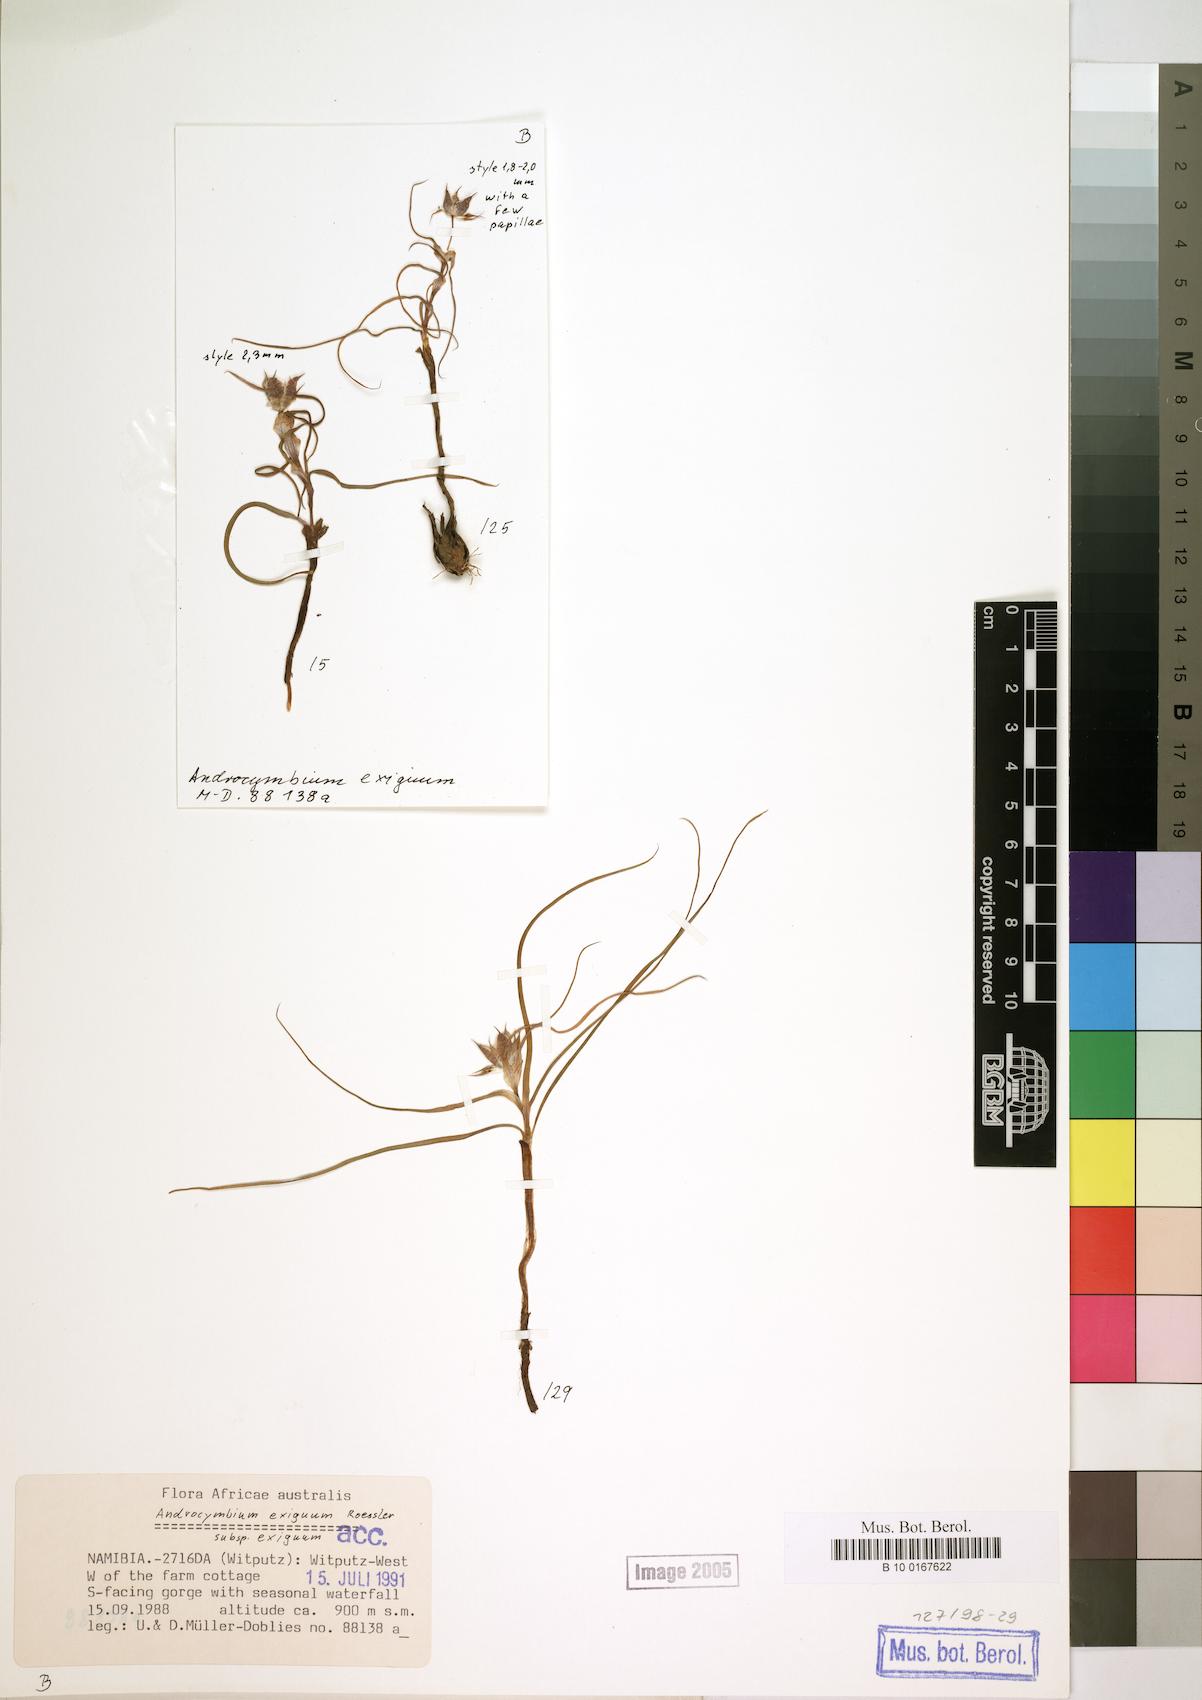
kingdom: Plantae
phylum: Tracheophyta
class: Liliopsida
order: Liliales
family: Colchicaceae
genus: Colchicum
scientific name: Colchicum exiguum
